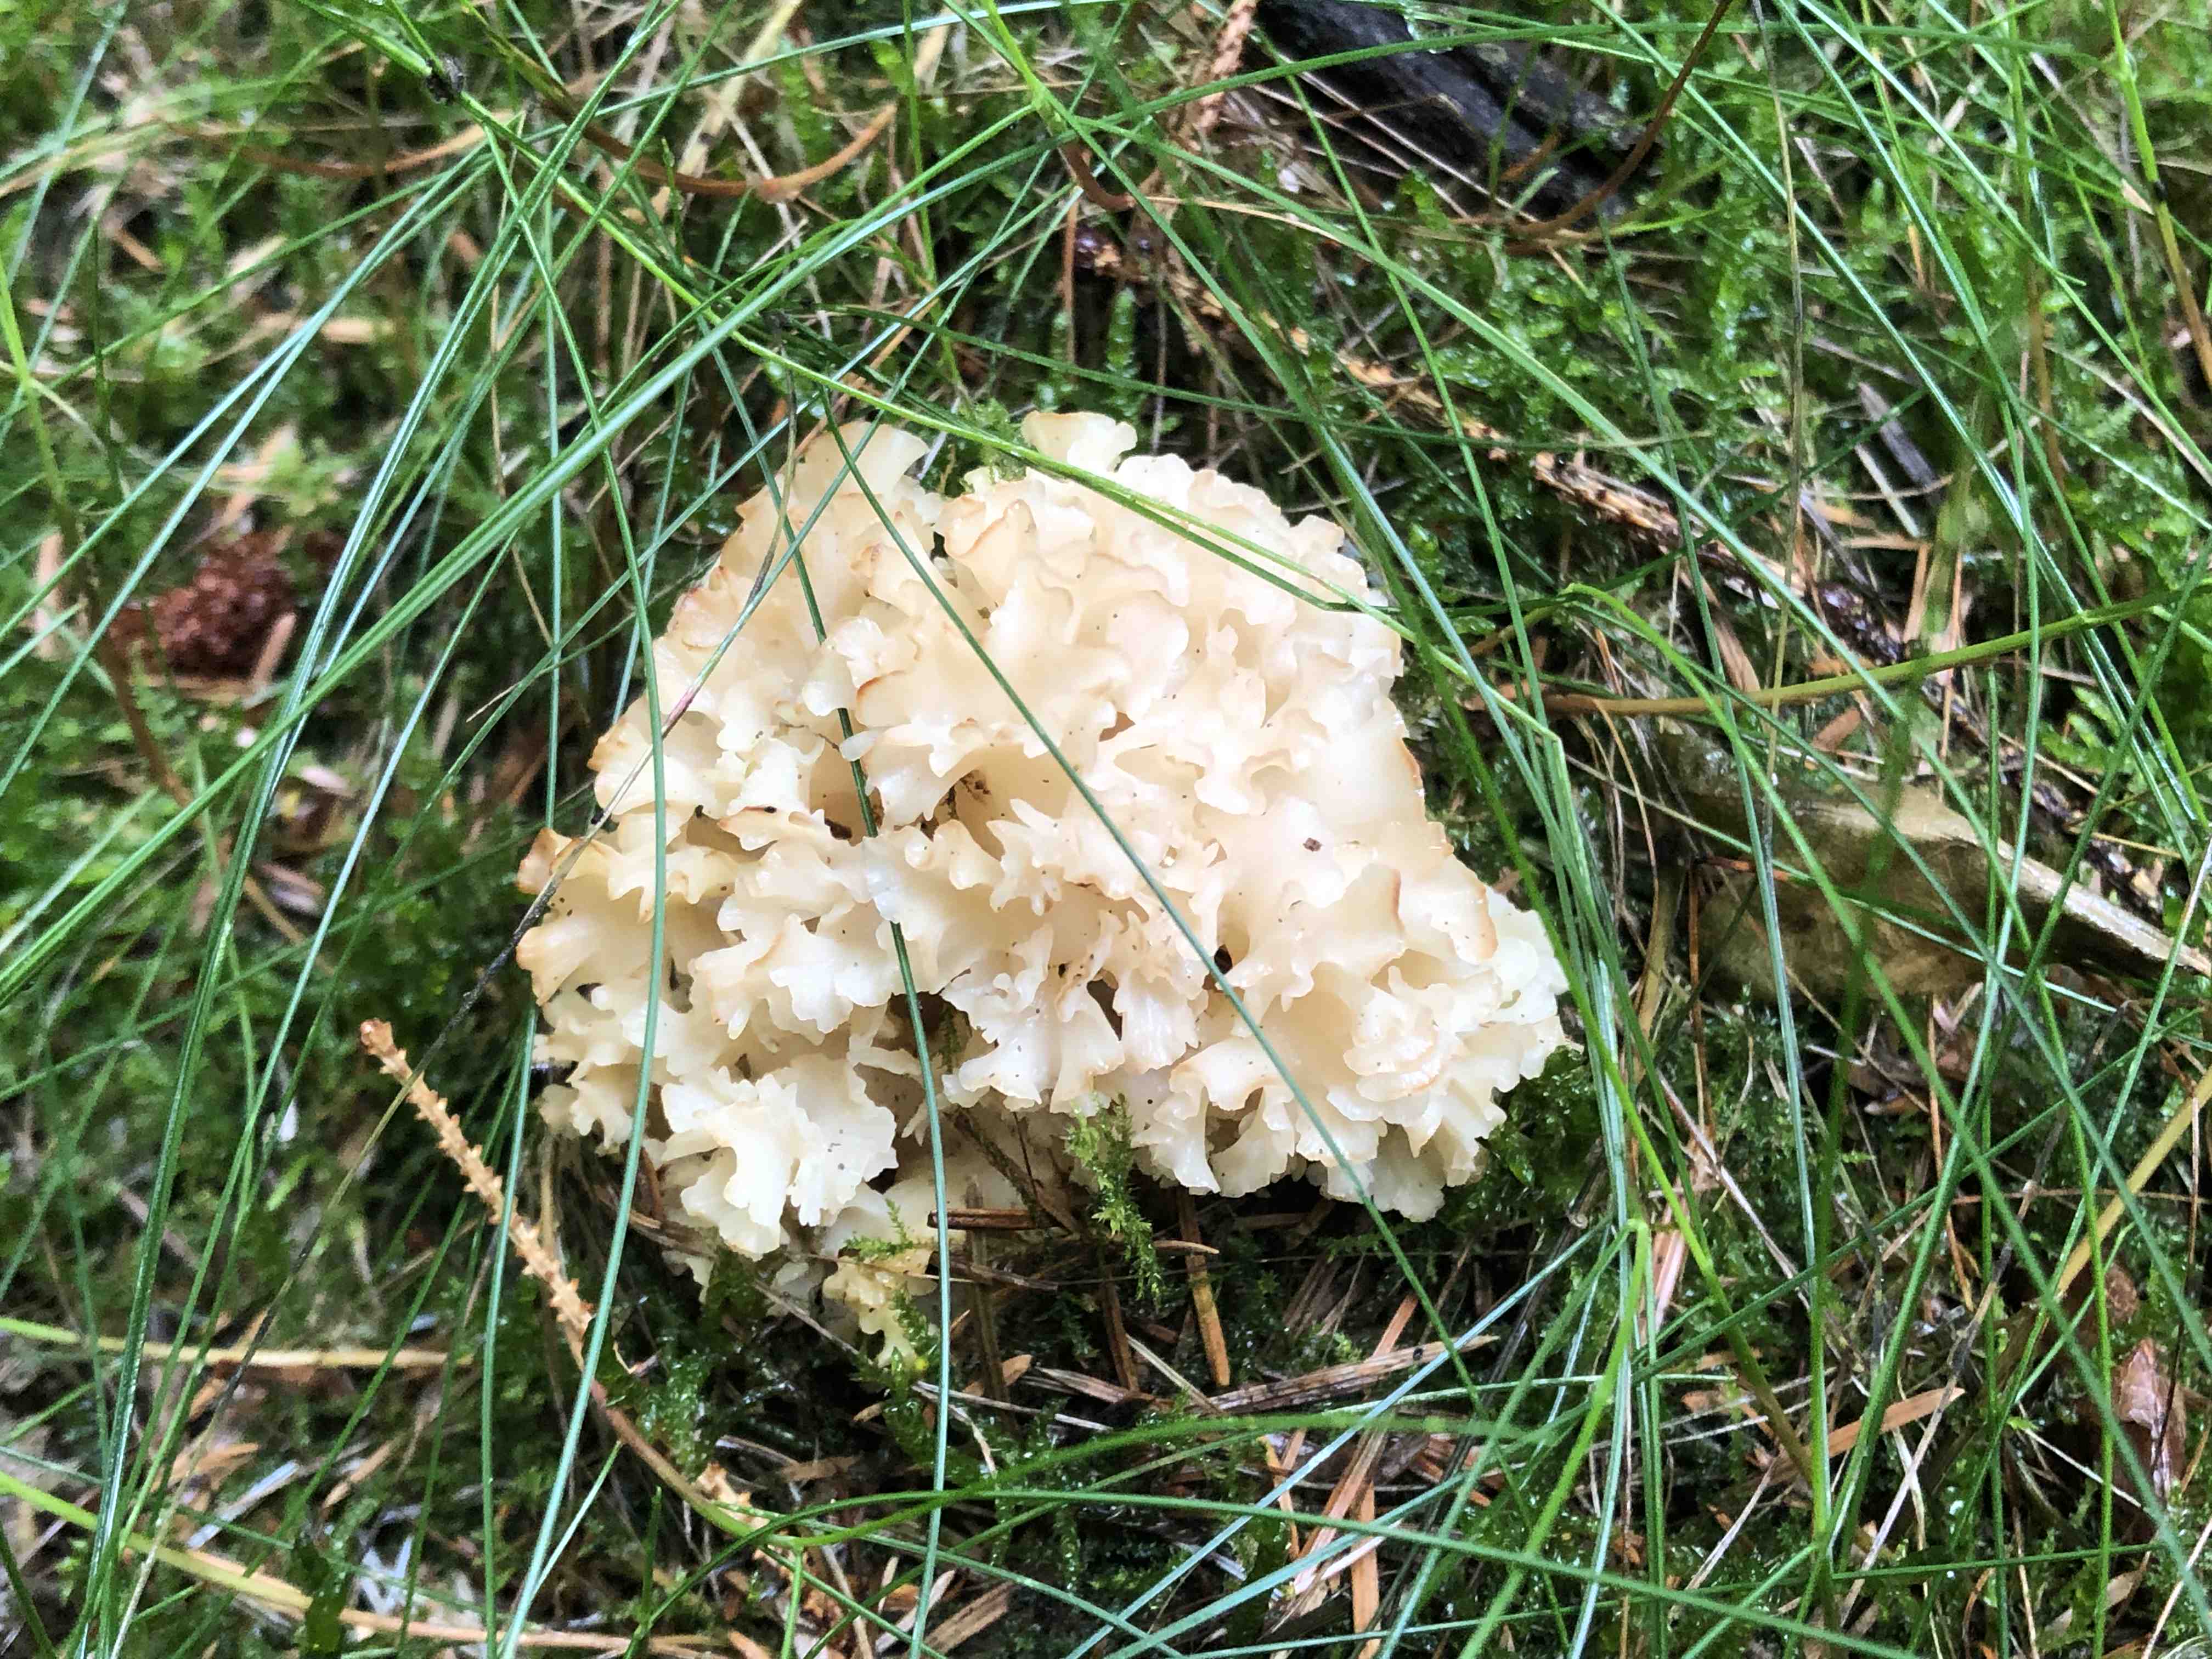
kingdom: Fungi
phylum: Basidiomycota
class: Agaricomycetes
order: Polyporales
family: Sparassidaceae
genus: Sparassis
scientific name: Sparassis crispa
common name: kruset blomkålssvamp
